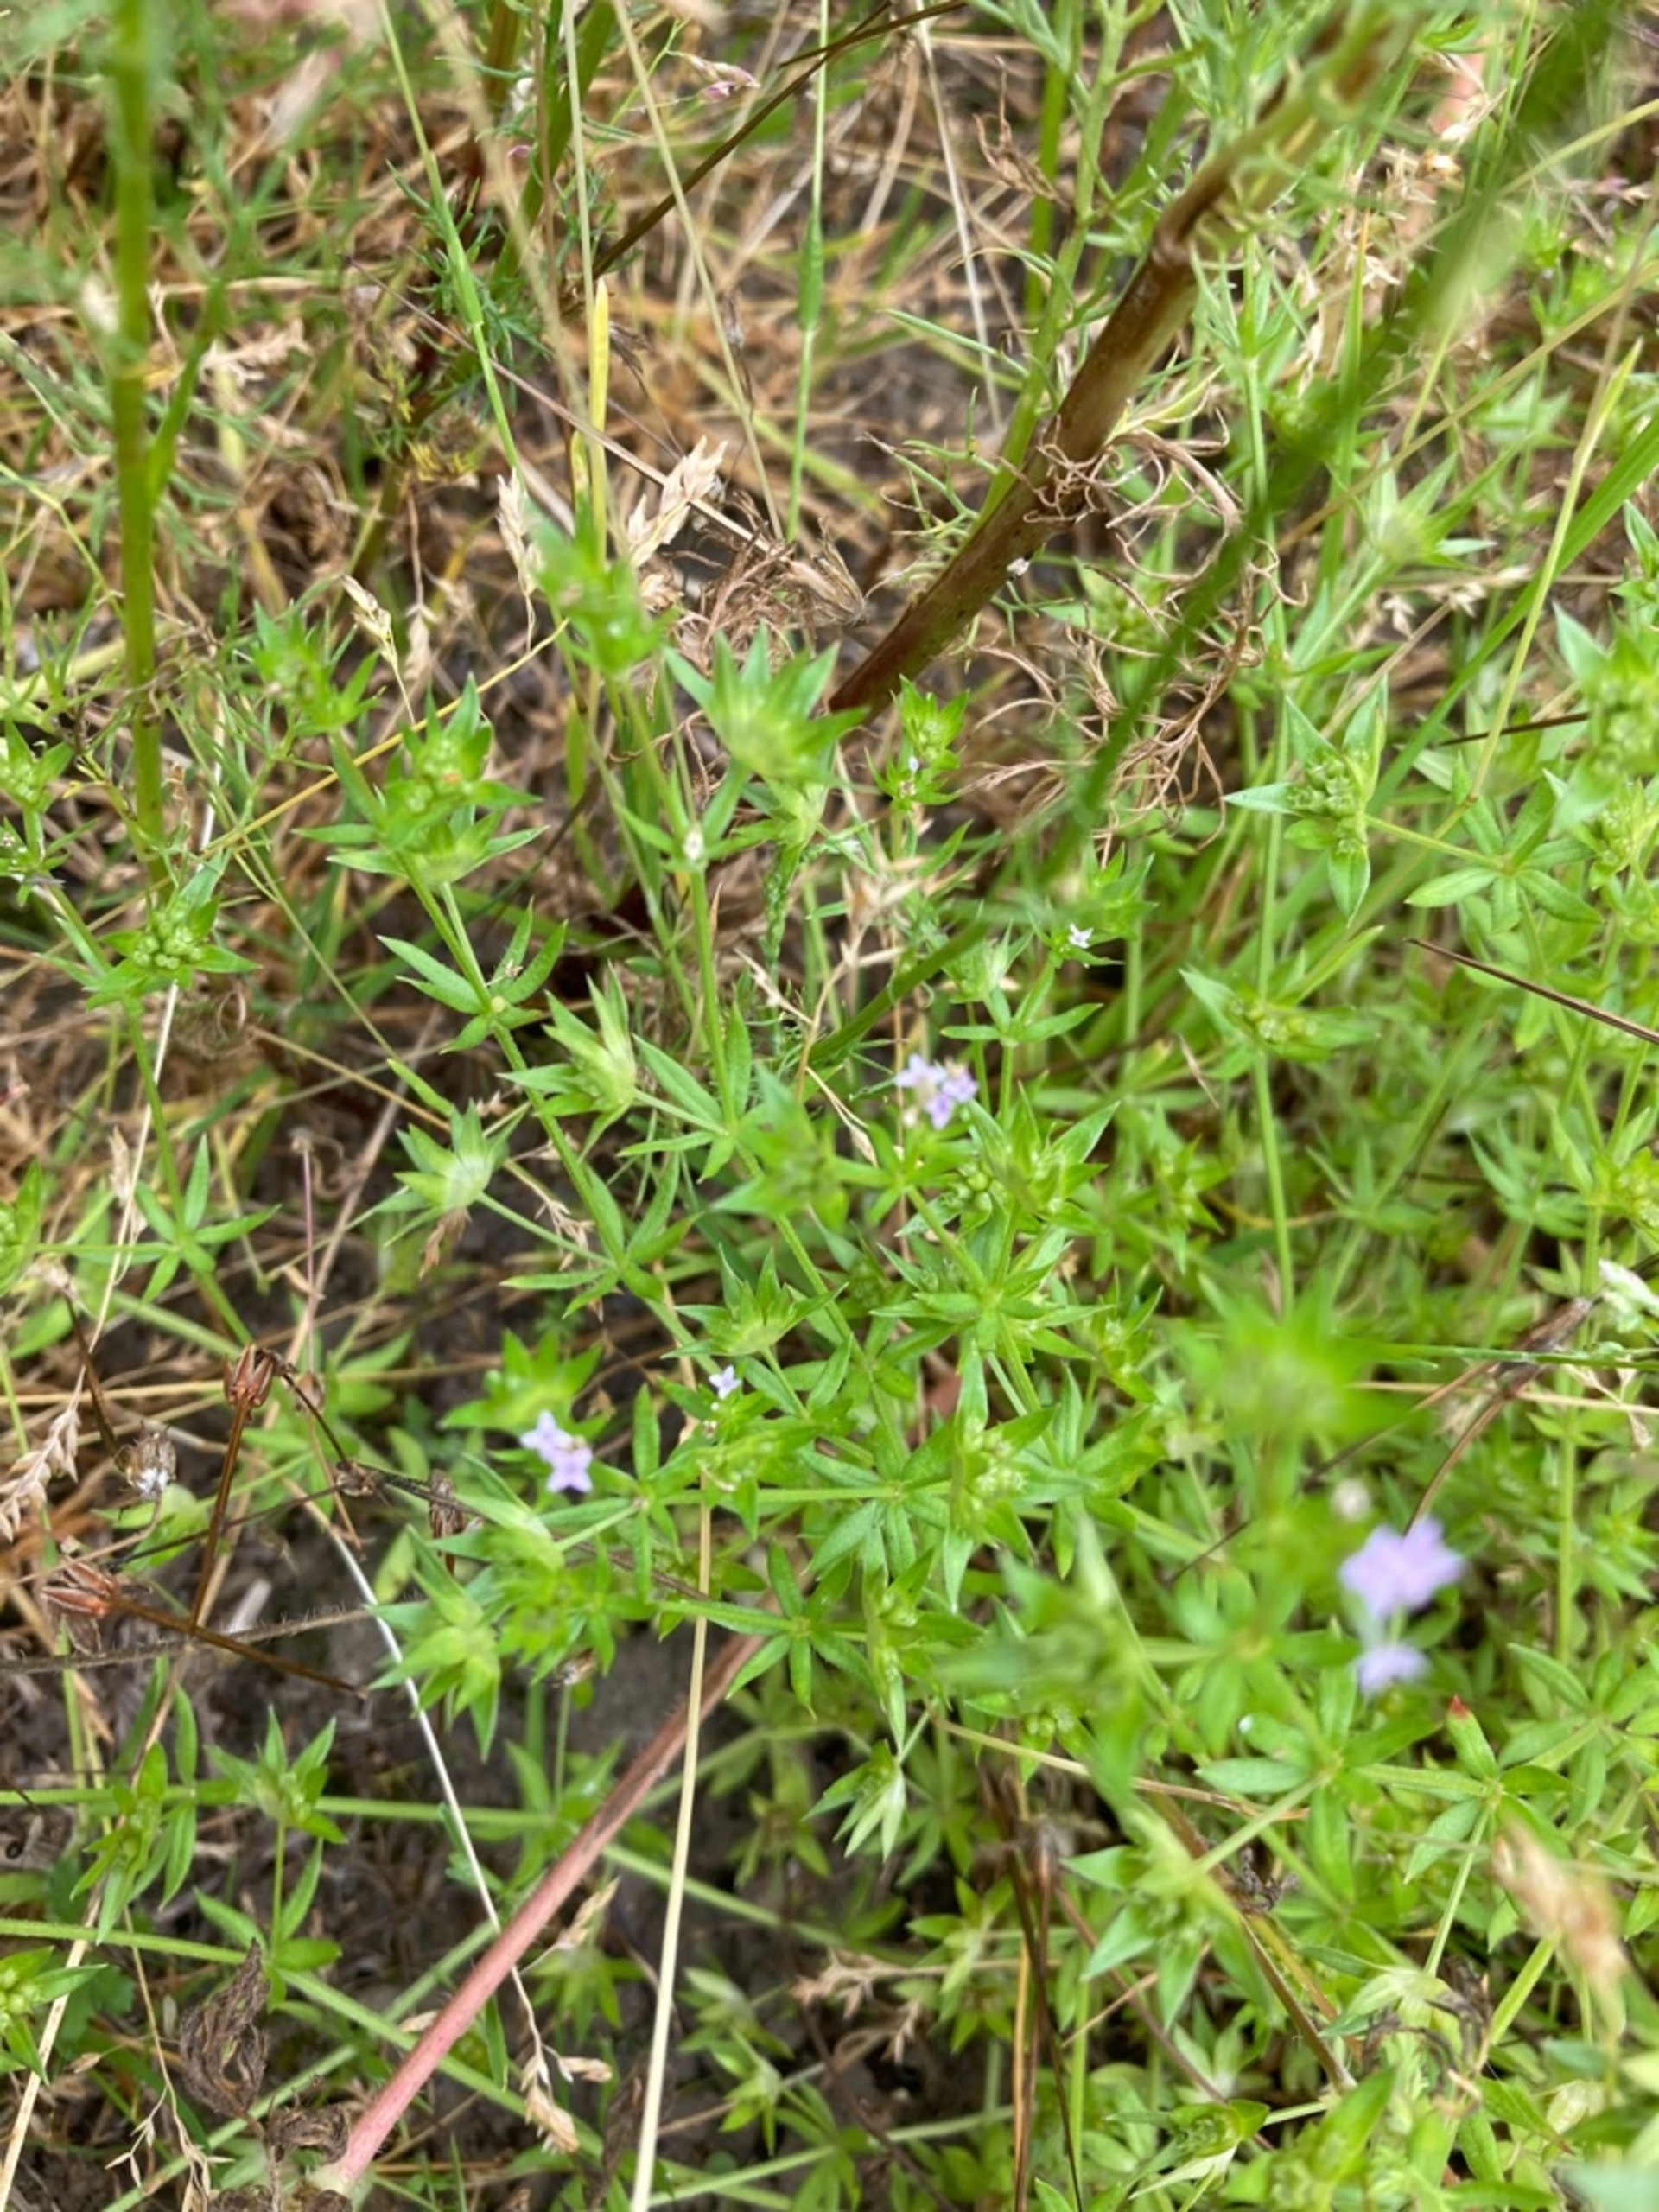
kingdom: Plantae
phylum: Tracheophyta
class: Magnoliopsida
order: Gentianales
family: Rubiaceae
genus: Sherardia
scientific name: Sherardia arvensis
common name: Blåstjerne
